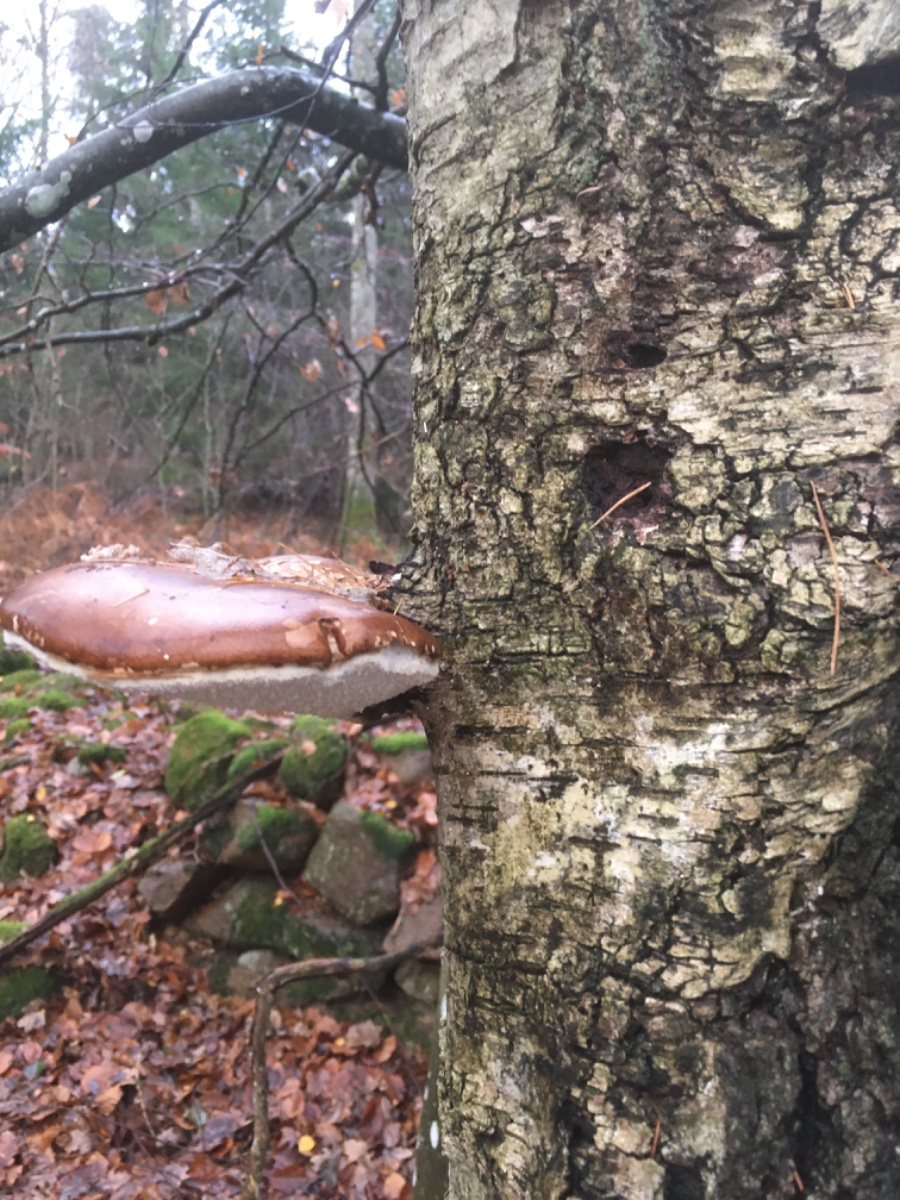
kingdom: Fungi
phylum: Basidiomycota
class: Agaricomycetes
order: Polyporales
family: Fomitopsidaceae
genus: Fomitopsis
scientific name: Fomitopsis betulina
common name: birkeporesvamp
